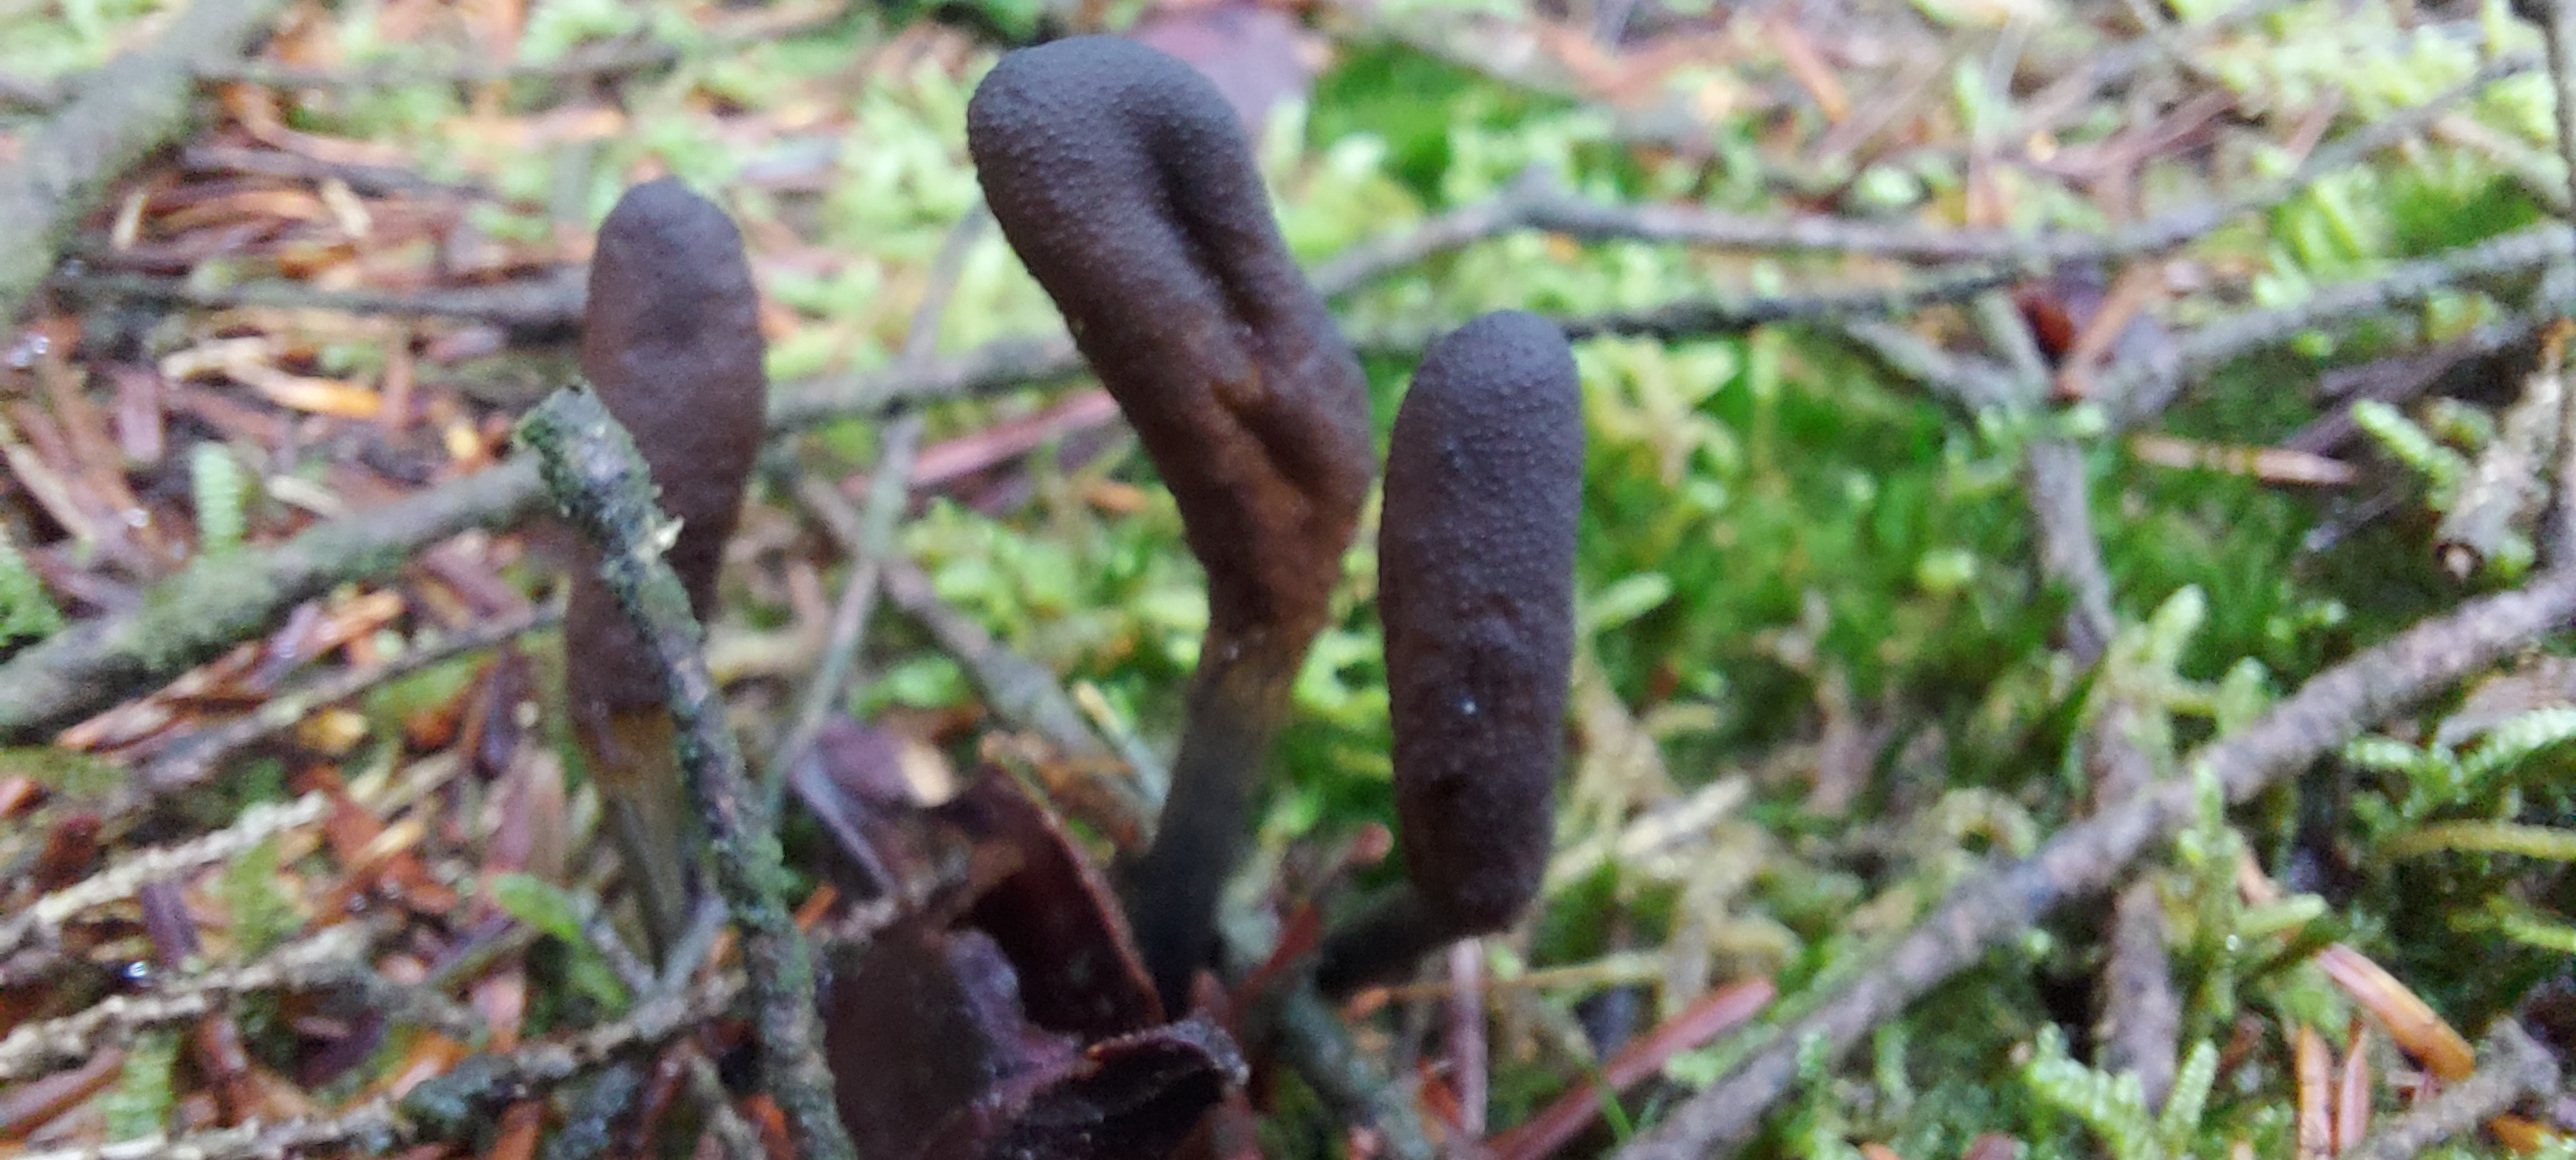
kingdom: Fungi
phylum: Ascomycota
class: Sordariomycetes
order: Hypocreales
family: Ophiocordycipitaceae
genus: Tolypocladium
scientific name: Tolypocladium ophioglossoides
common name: slank snyltekølle
